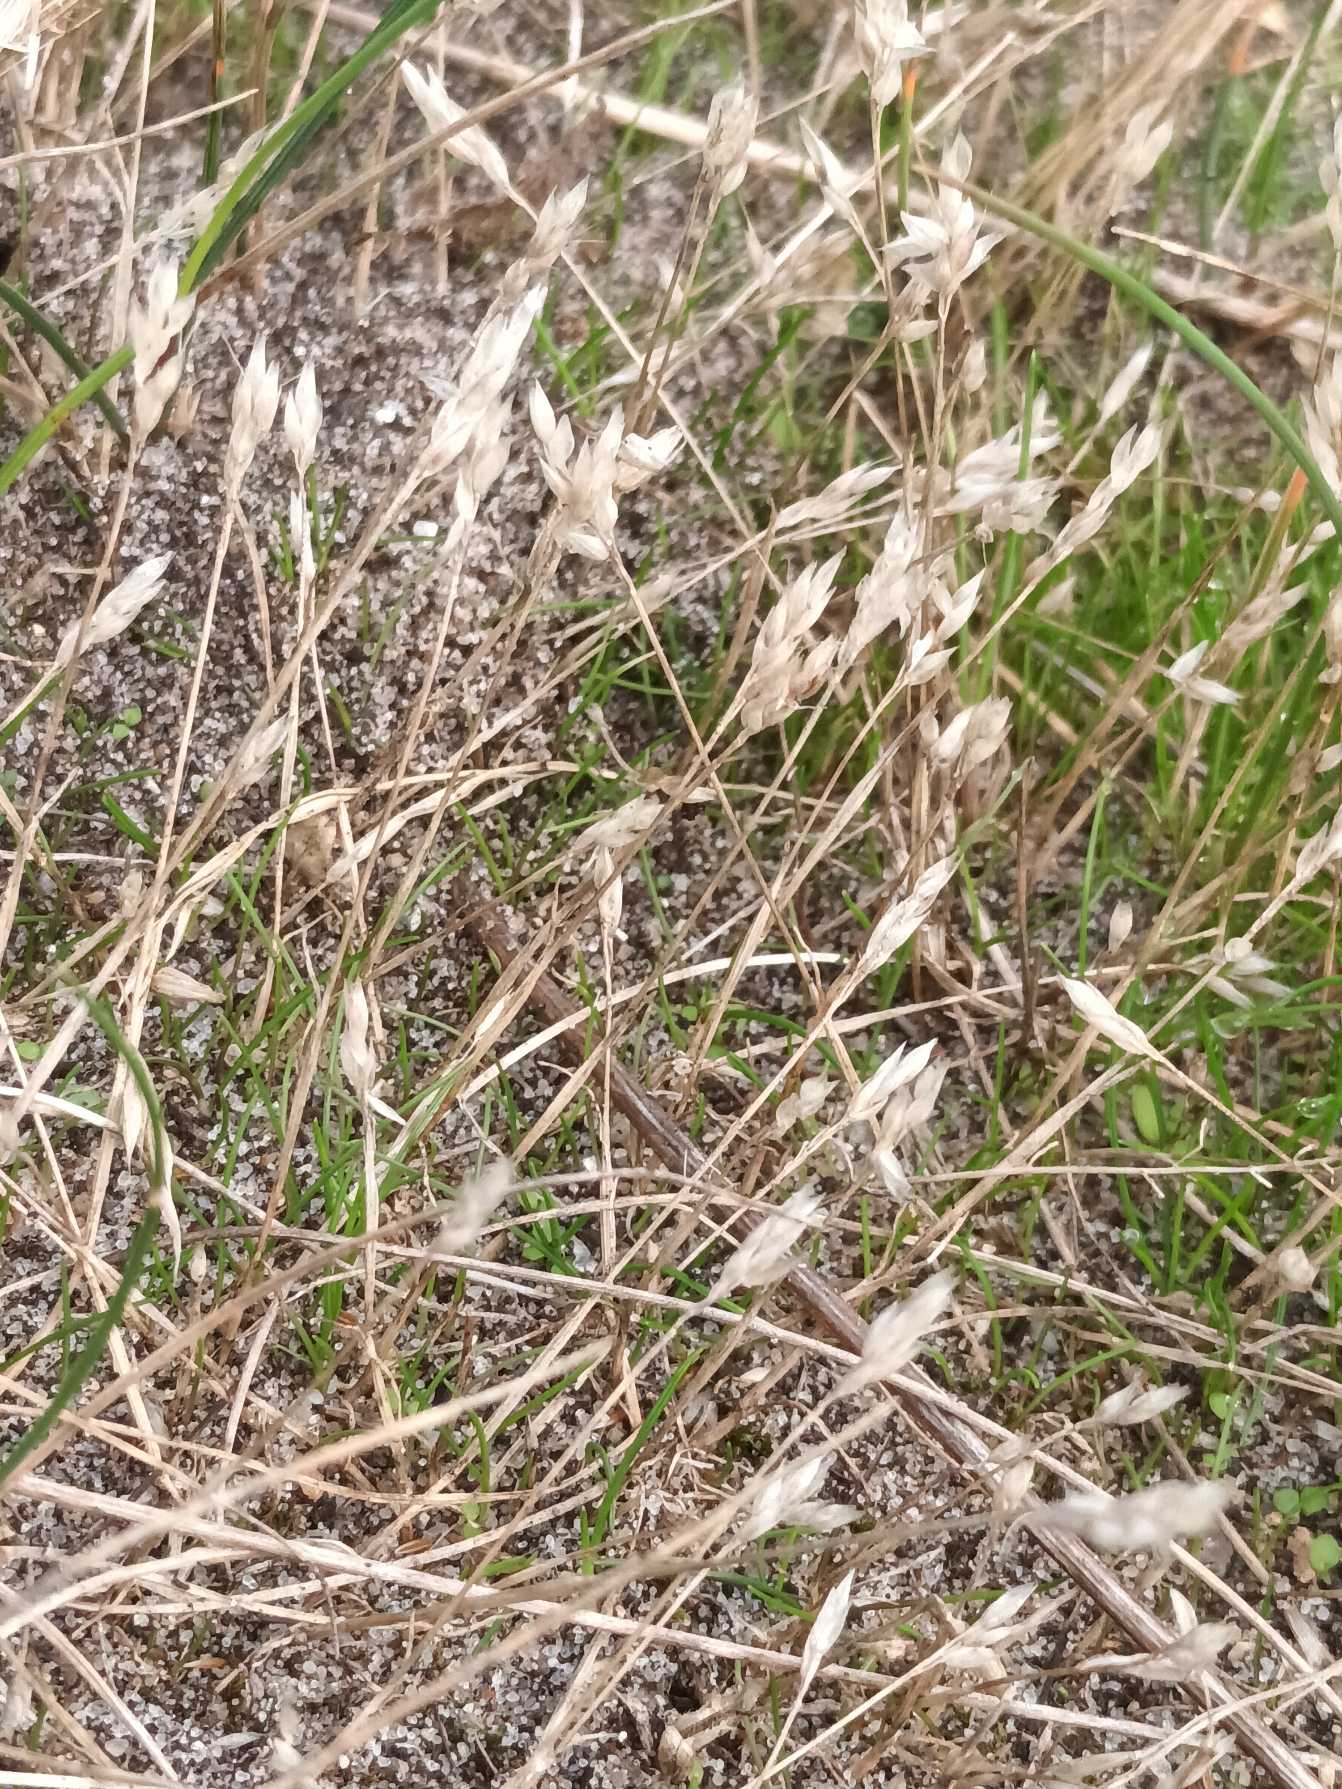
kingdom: Plantae
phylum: Tracheophyta
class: Liliopsida
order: Poales
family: Poaceae
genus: Aira
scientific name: Aira praecox
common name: Tidlig dværgbunke
